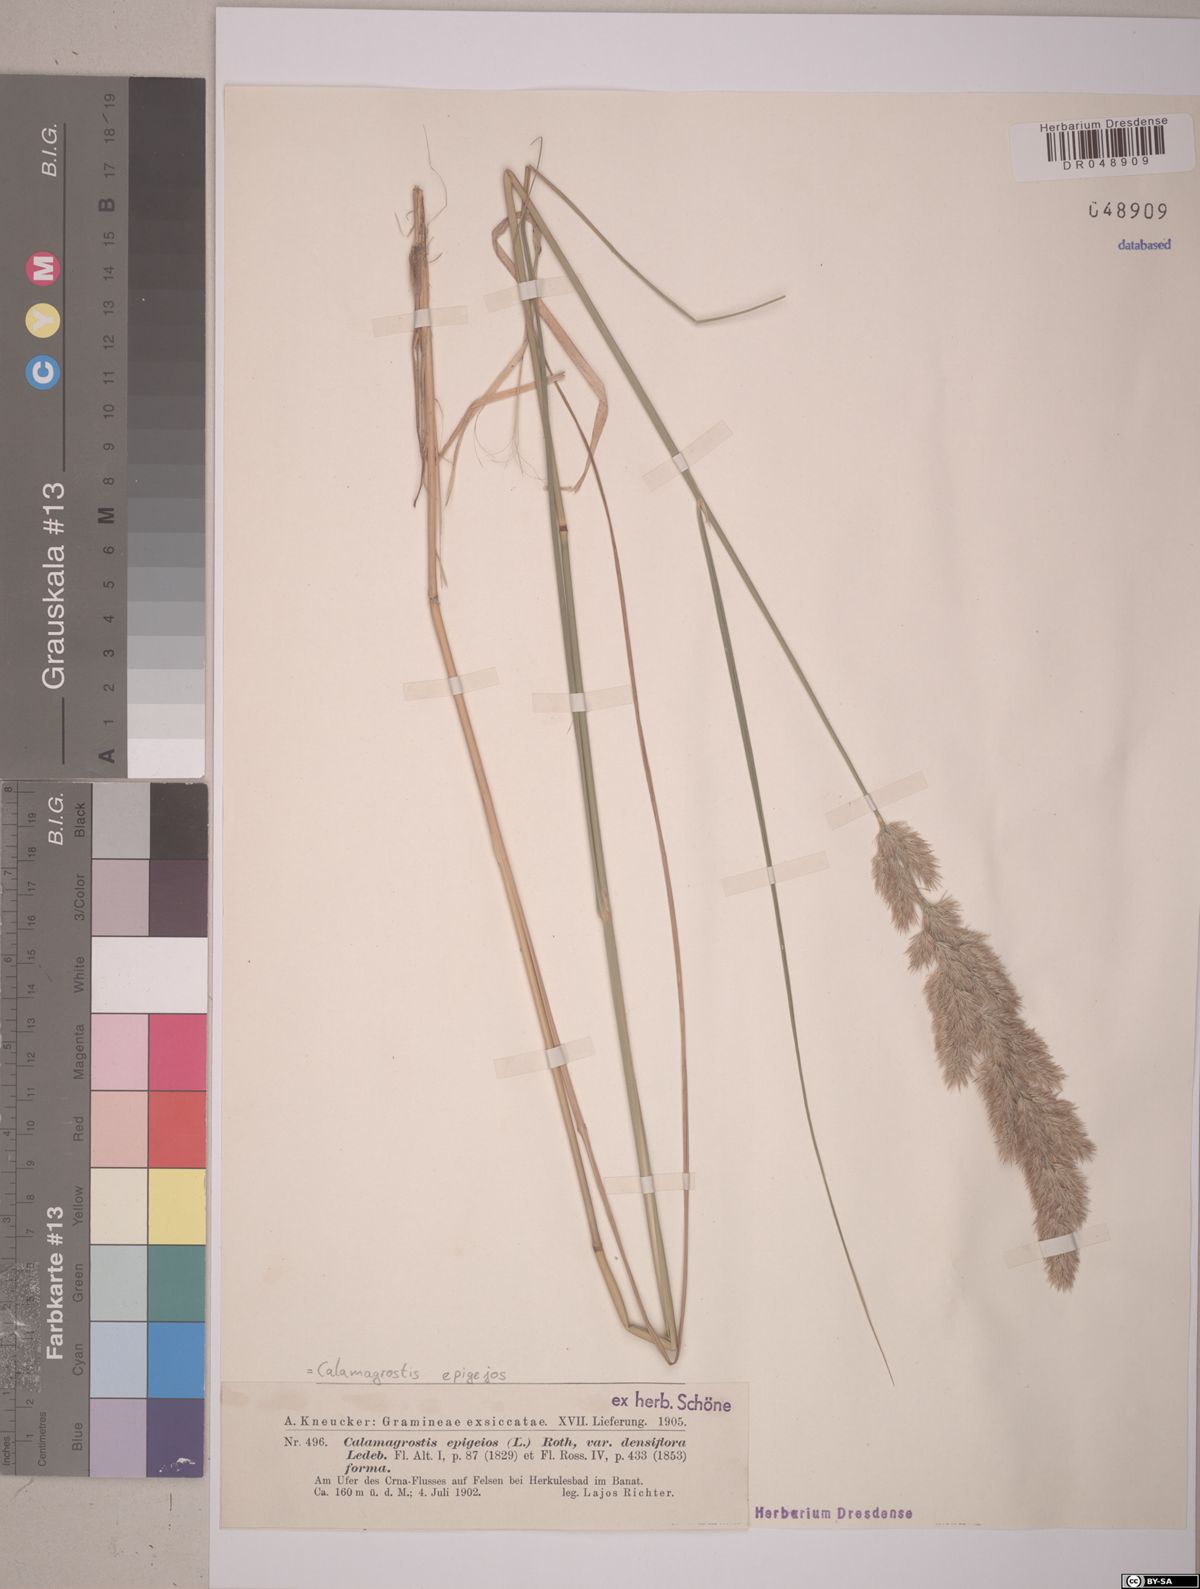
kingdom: Plantae
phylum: Tracheophyta
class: Liliopsida
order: Poales
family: Poaceae
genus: Calamagrostis
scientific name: Calamagrostis epigejos
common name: Wood small-reed
